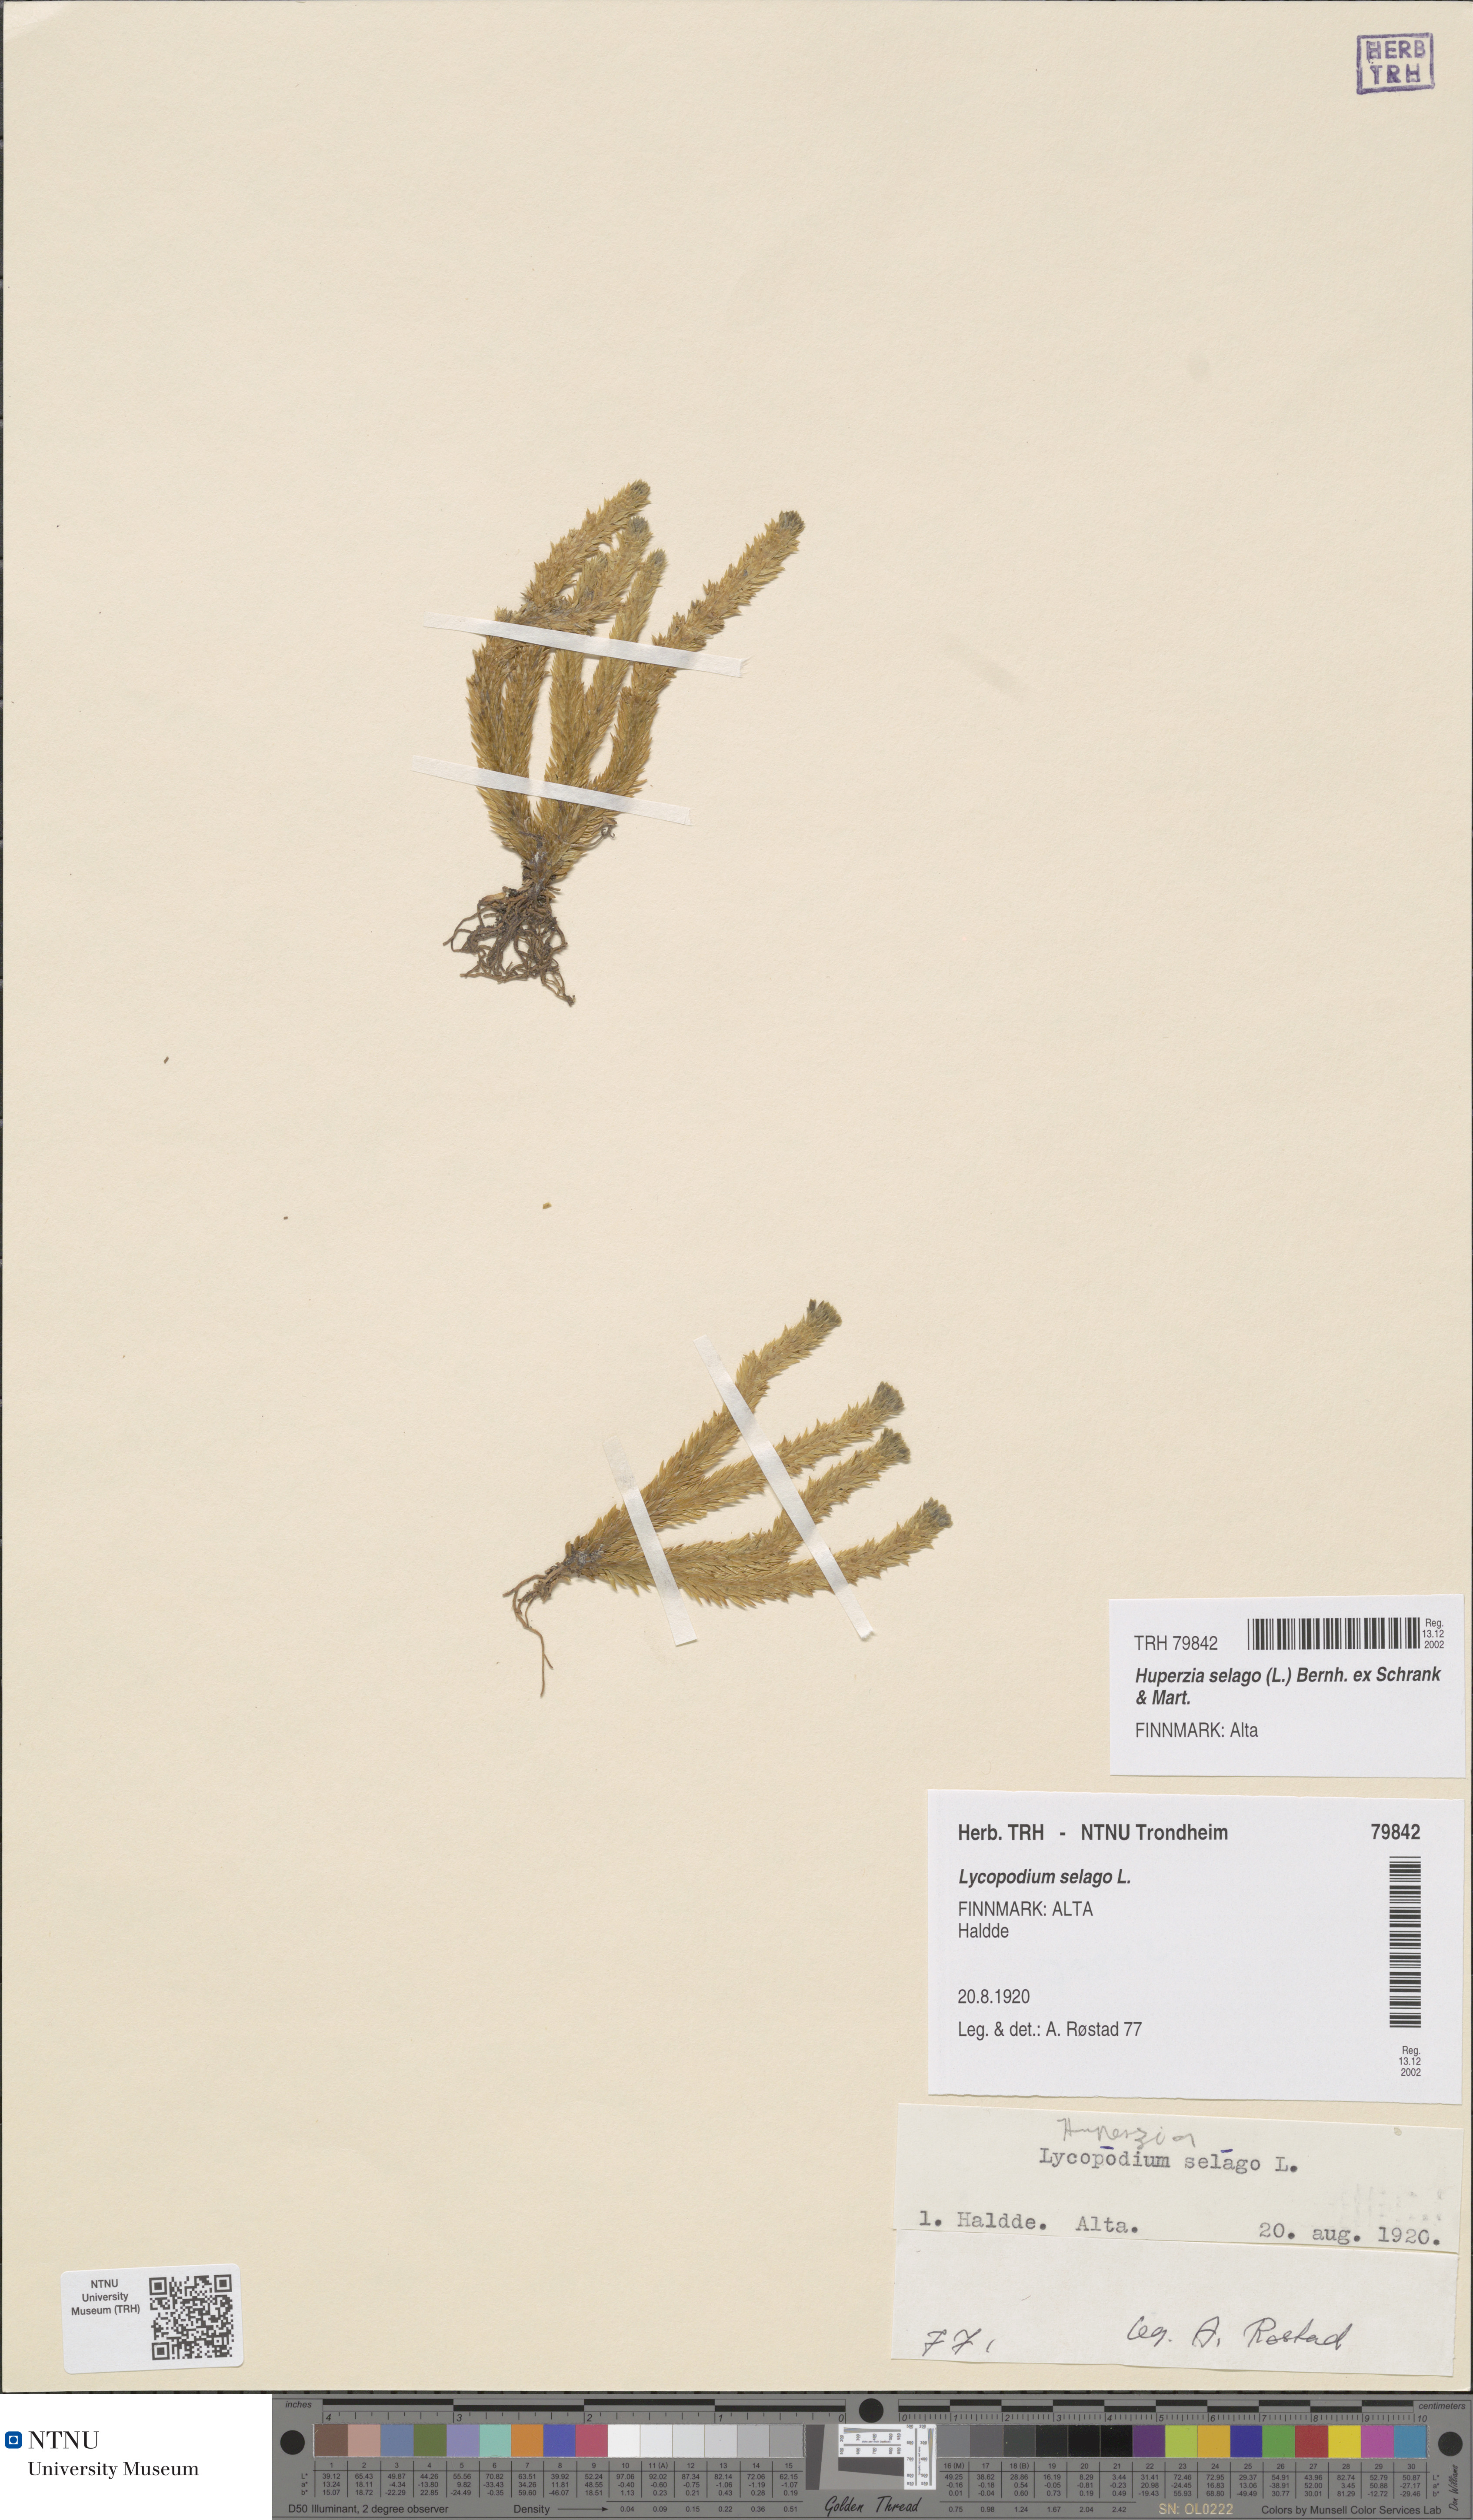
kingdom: Plantae
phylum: Tracheophyta
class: Lycopodiopsida
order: Lycopodiales
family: Lycopodiaceae
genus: Huperzia
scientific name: Huperzia selago
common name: Northern firmoss
